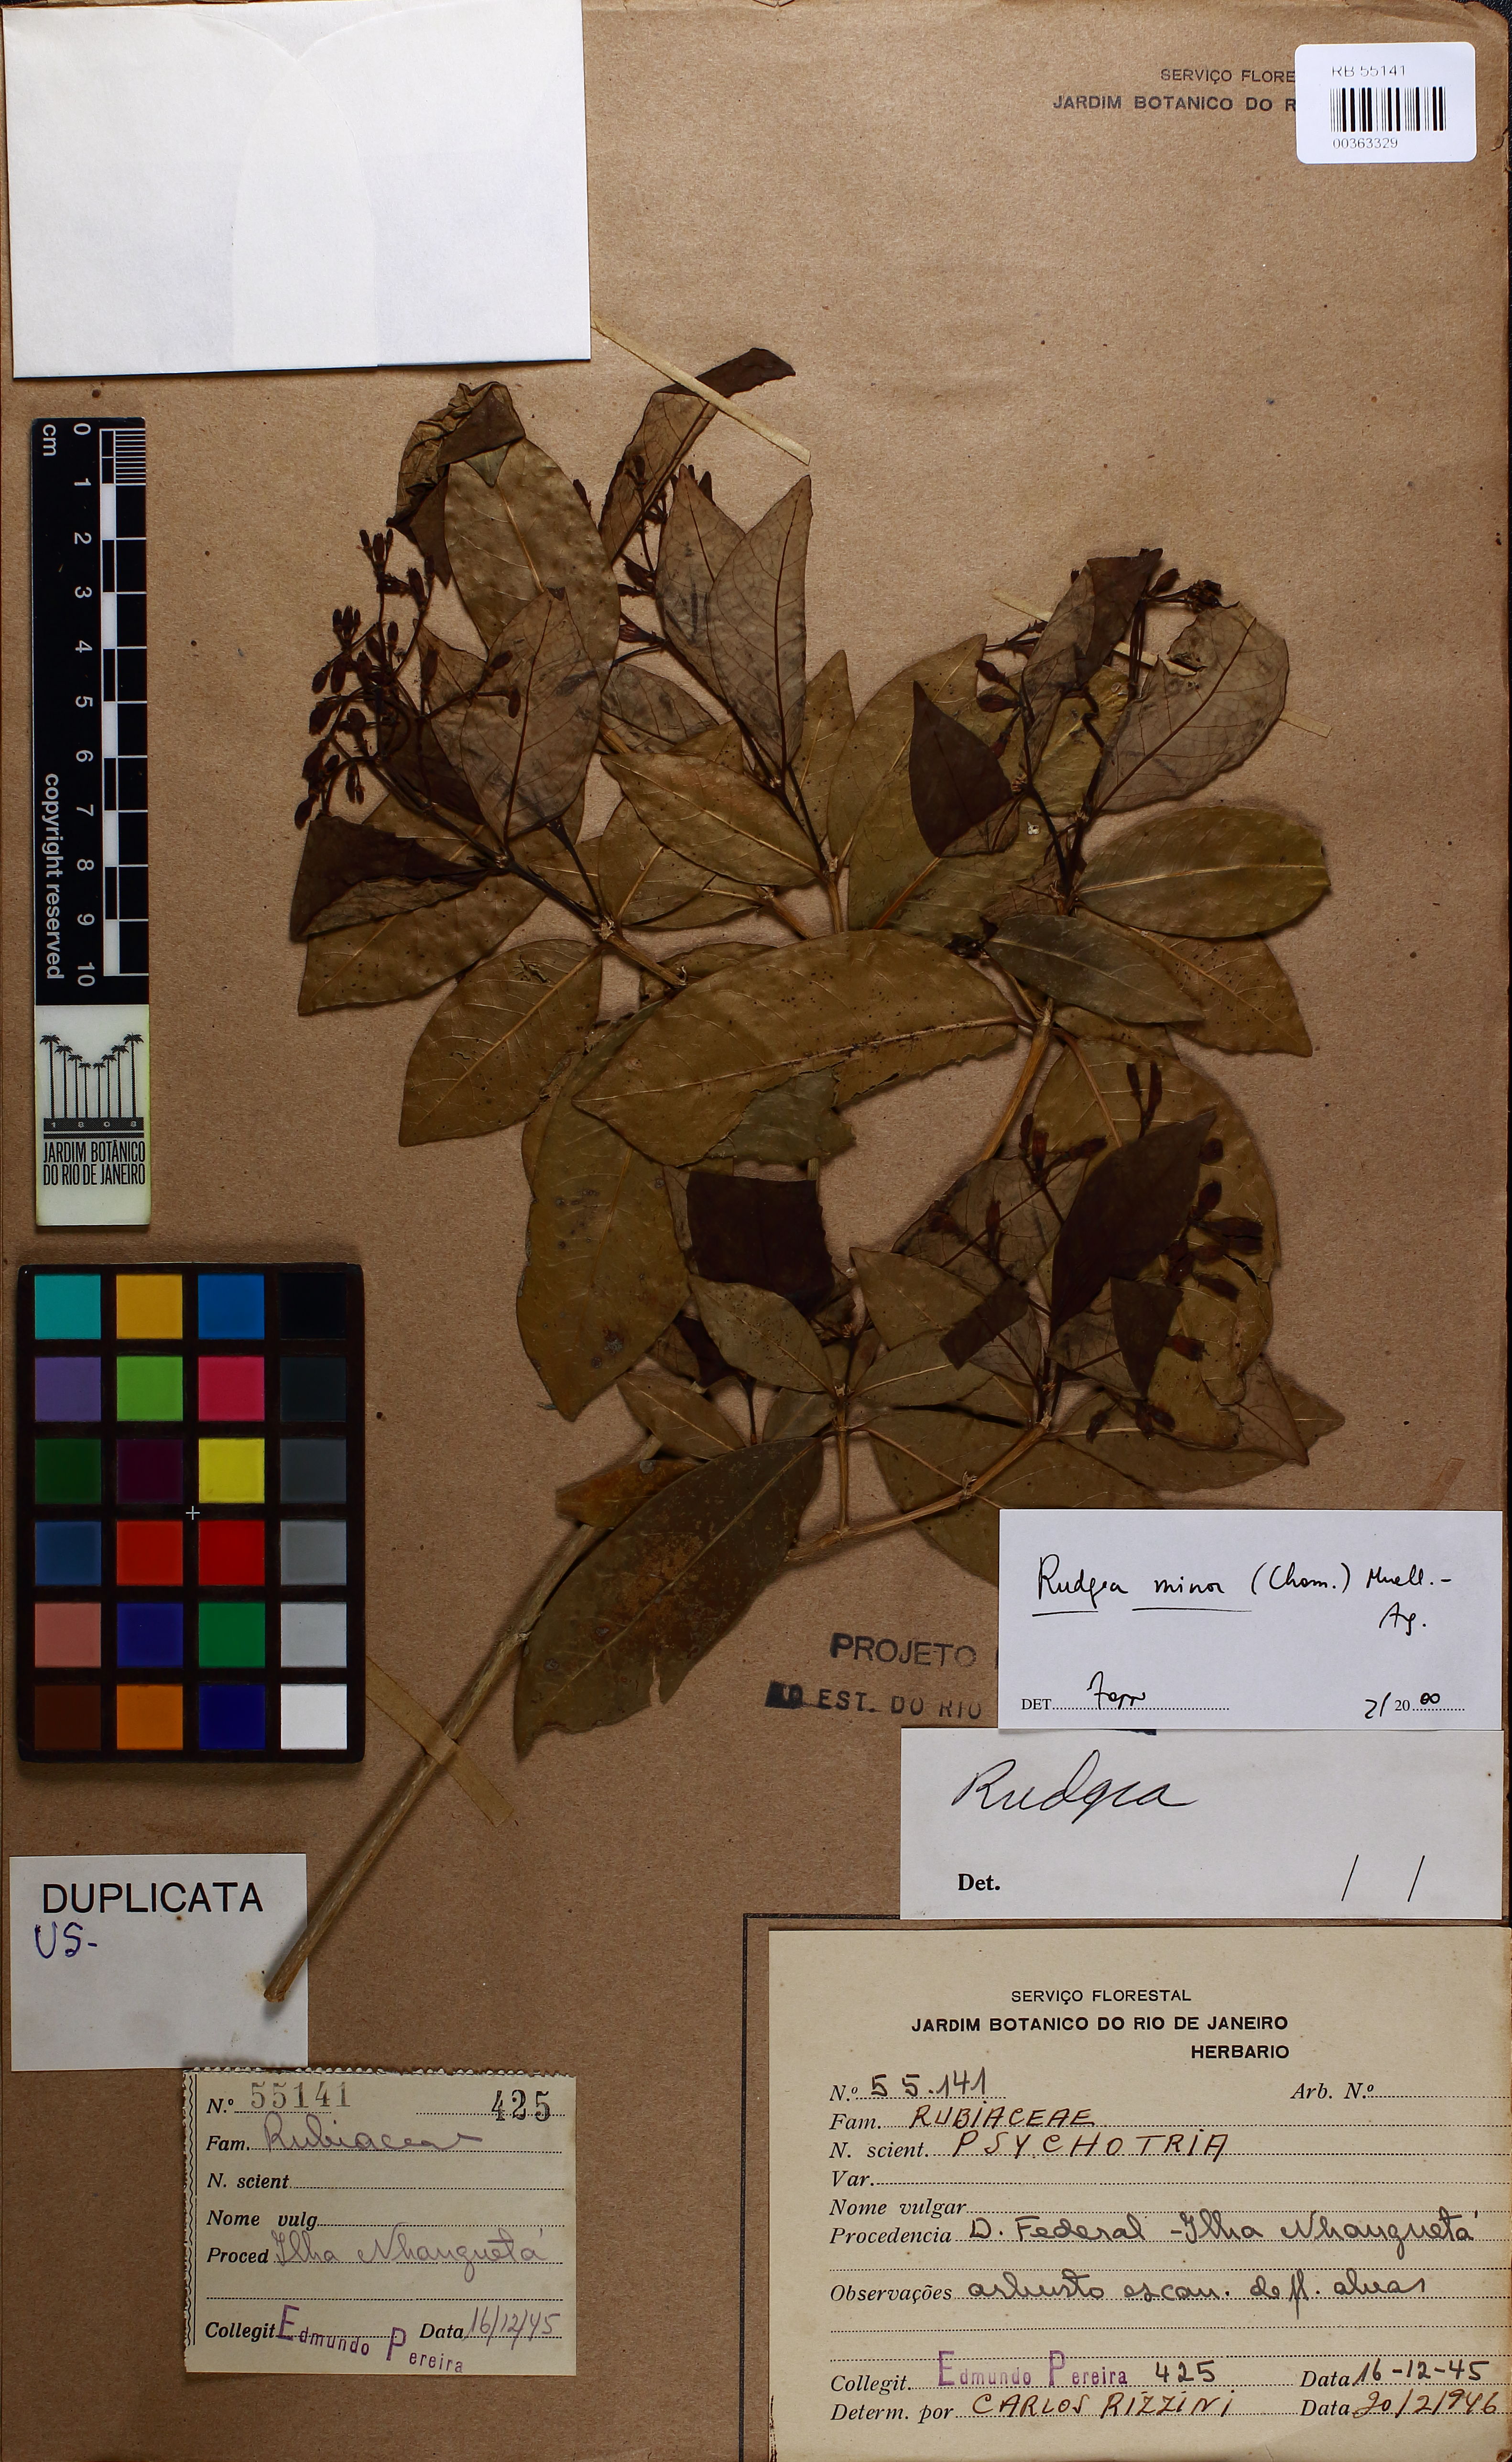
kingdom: Plantae
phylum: Tracheophyta
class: Magnoliopsida
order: Gentianales
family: Rubiaceae
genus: Rudgea
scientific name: Rudgea minor
